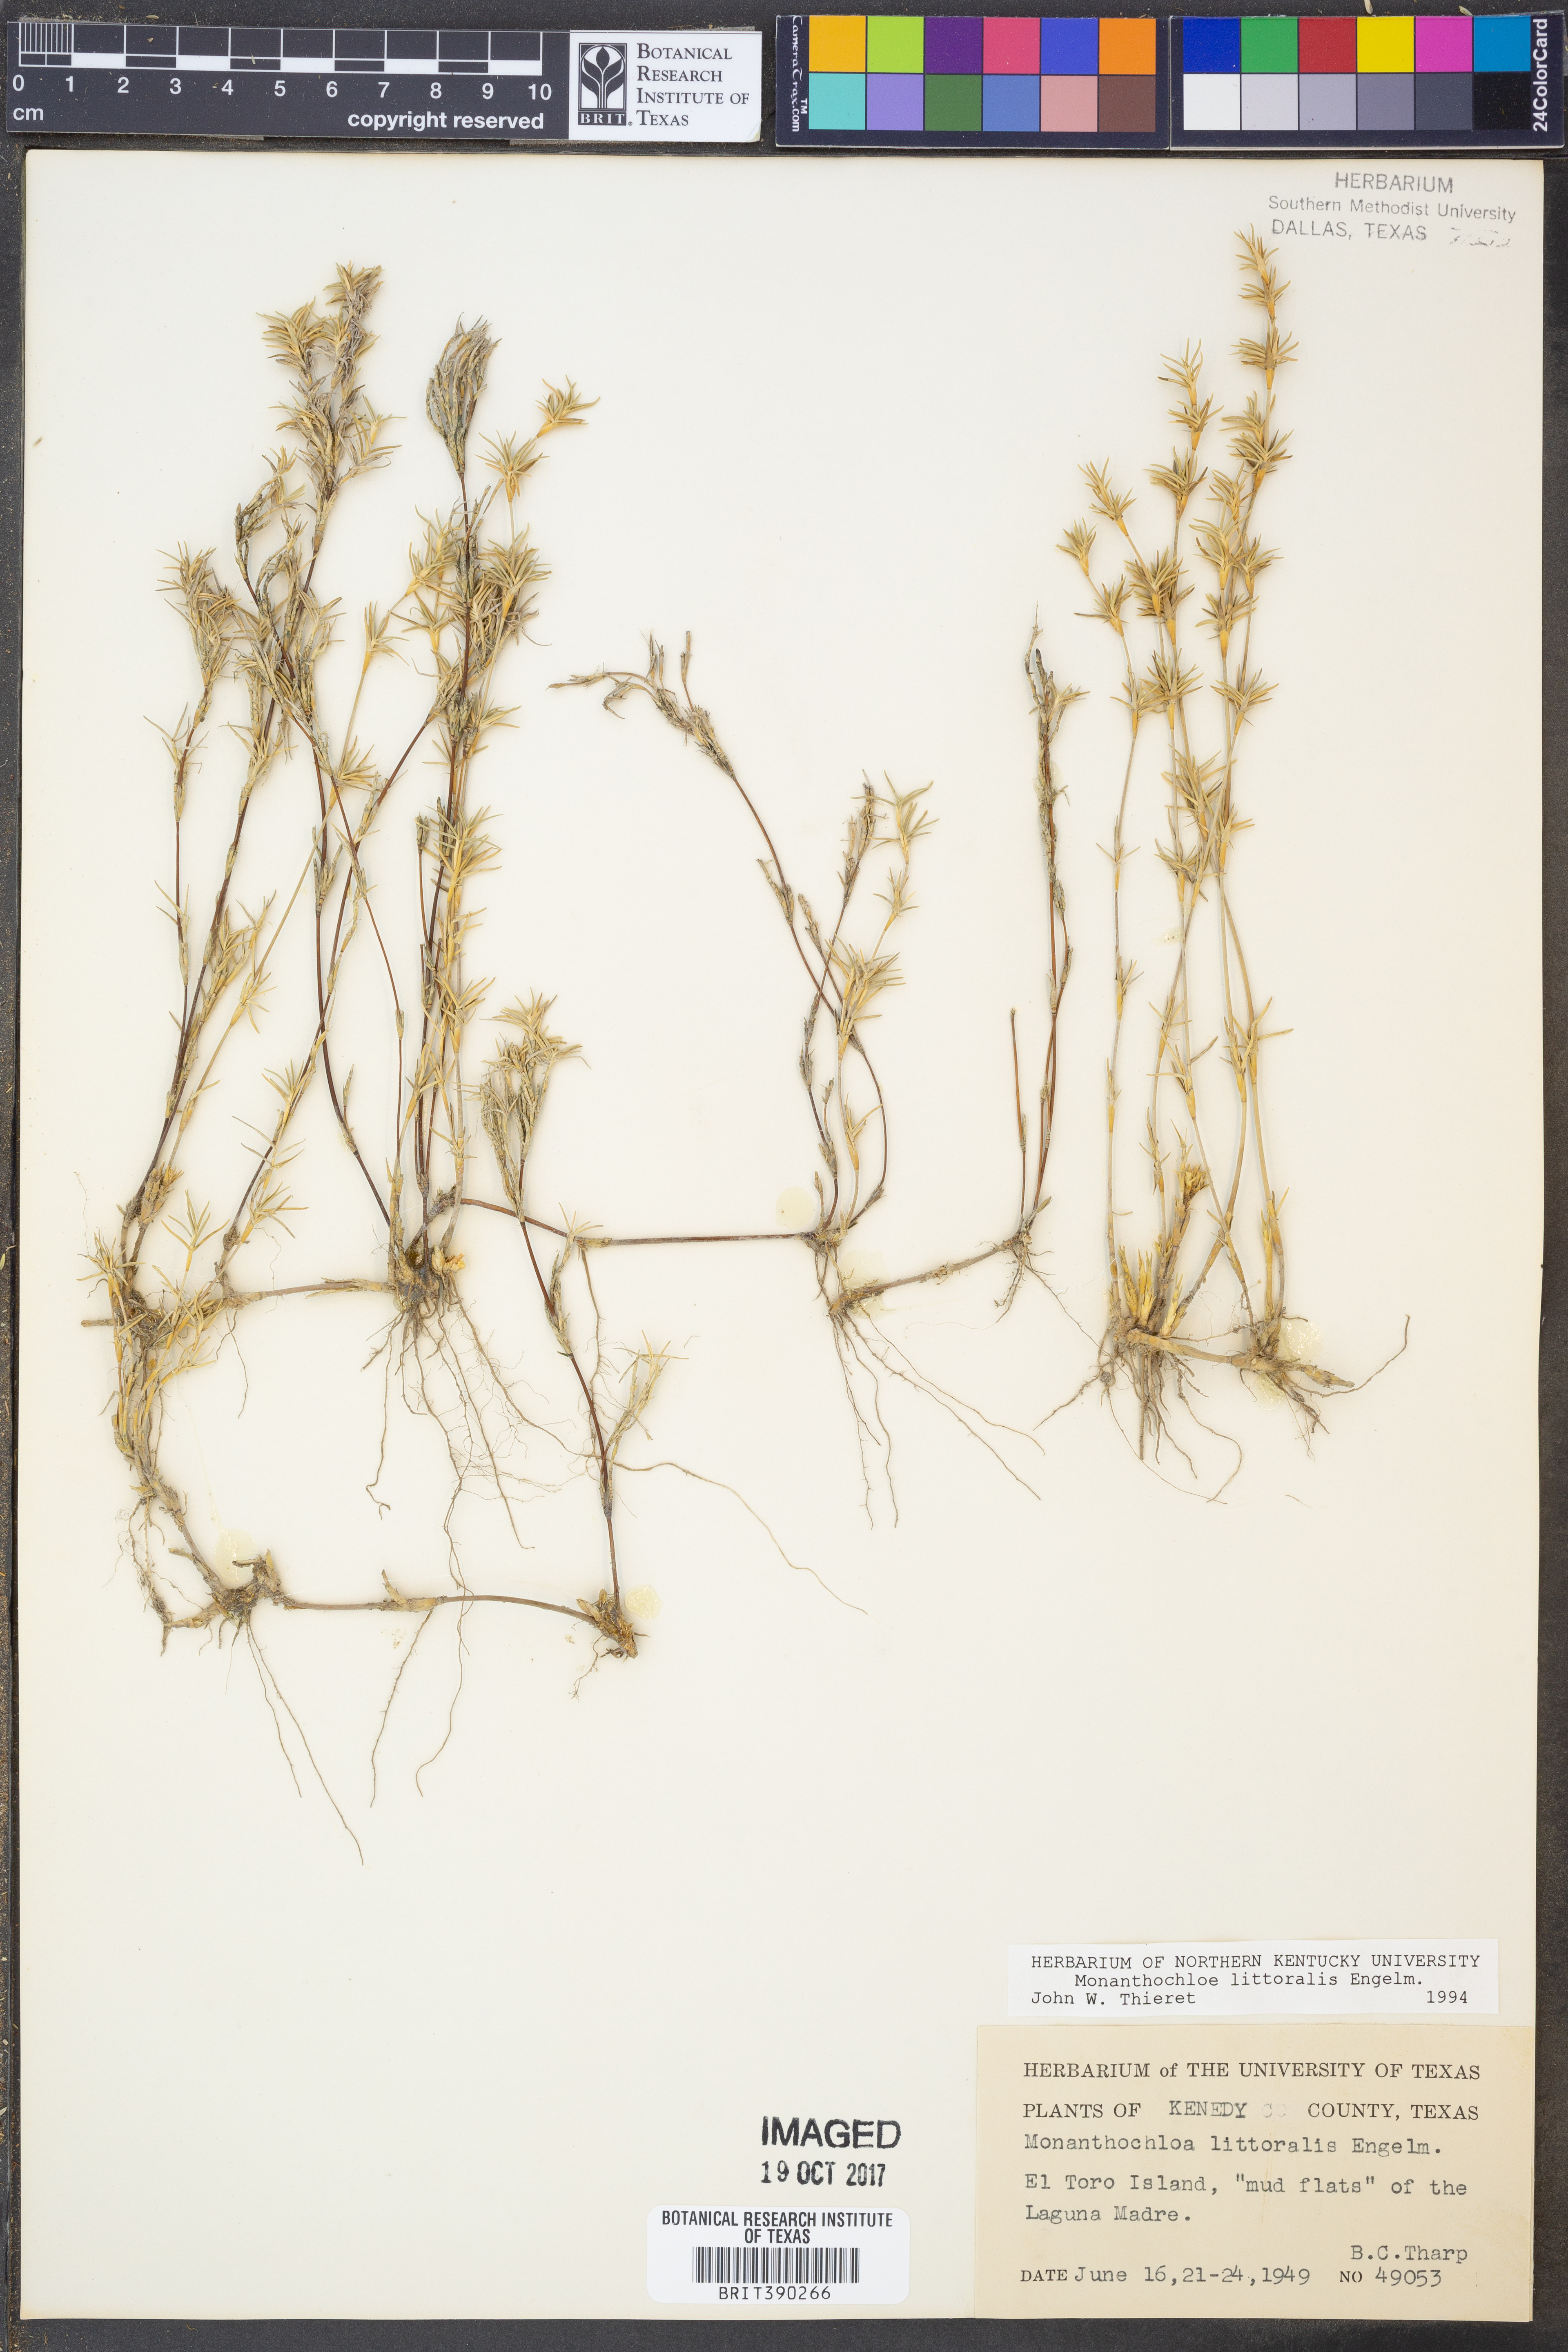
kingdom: Plantae
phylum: Tracheophyta
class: Liliopsida
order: Poales
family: Poaceae
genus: Distichlis
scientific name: Distichlis littoralis
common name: Shore grass
